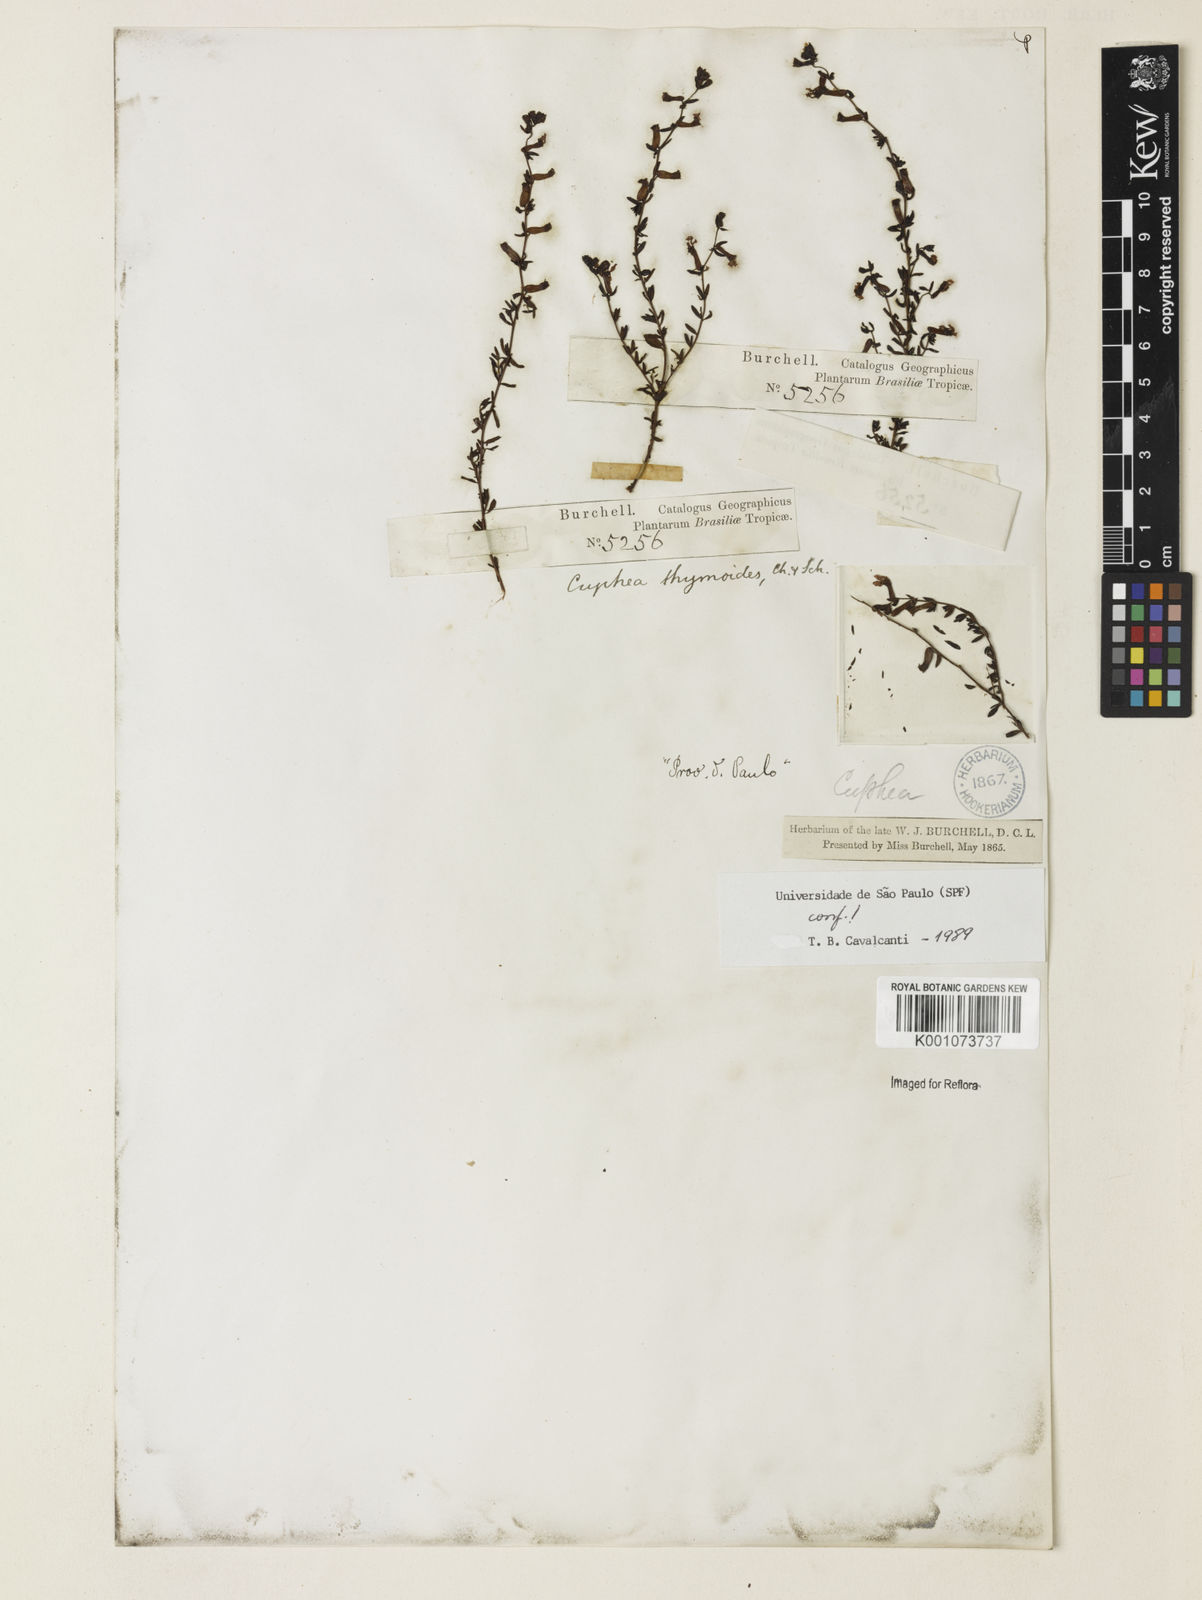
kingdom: Plantae
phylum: Tracheophyta
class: Magnoliopsida
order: Myrtales
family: Lythraceae
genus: Cuphea
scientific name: Cuphea thymoides
